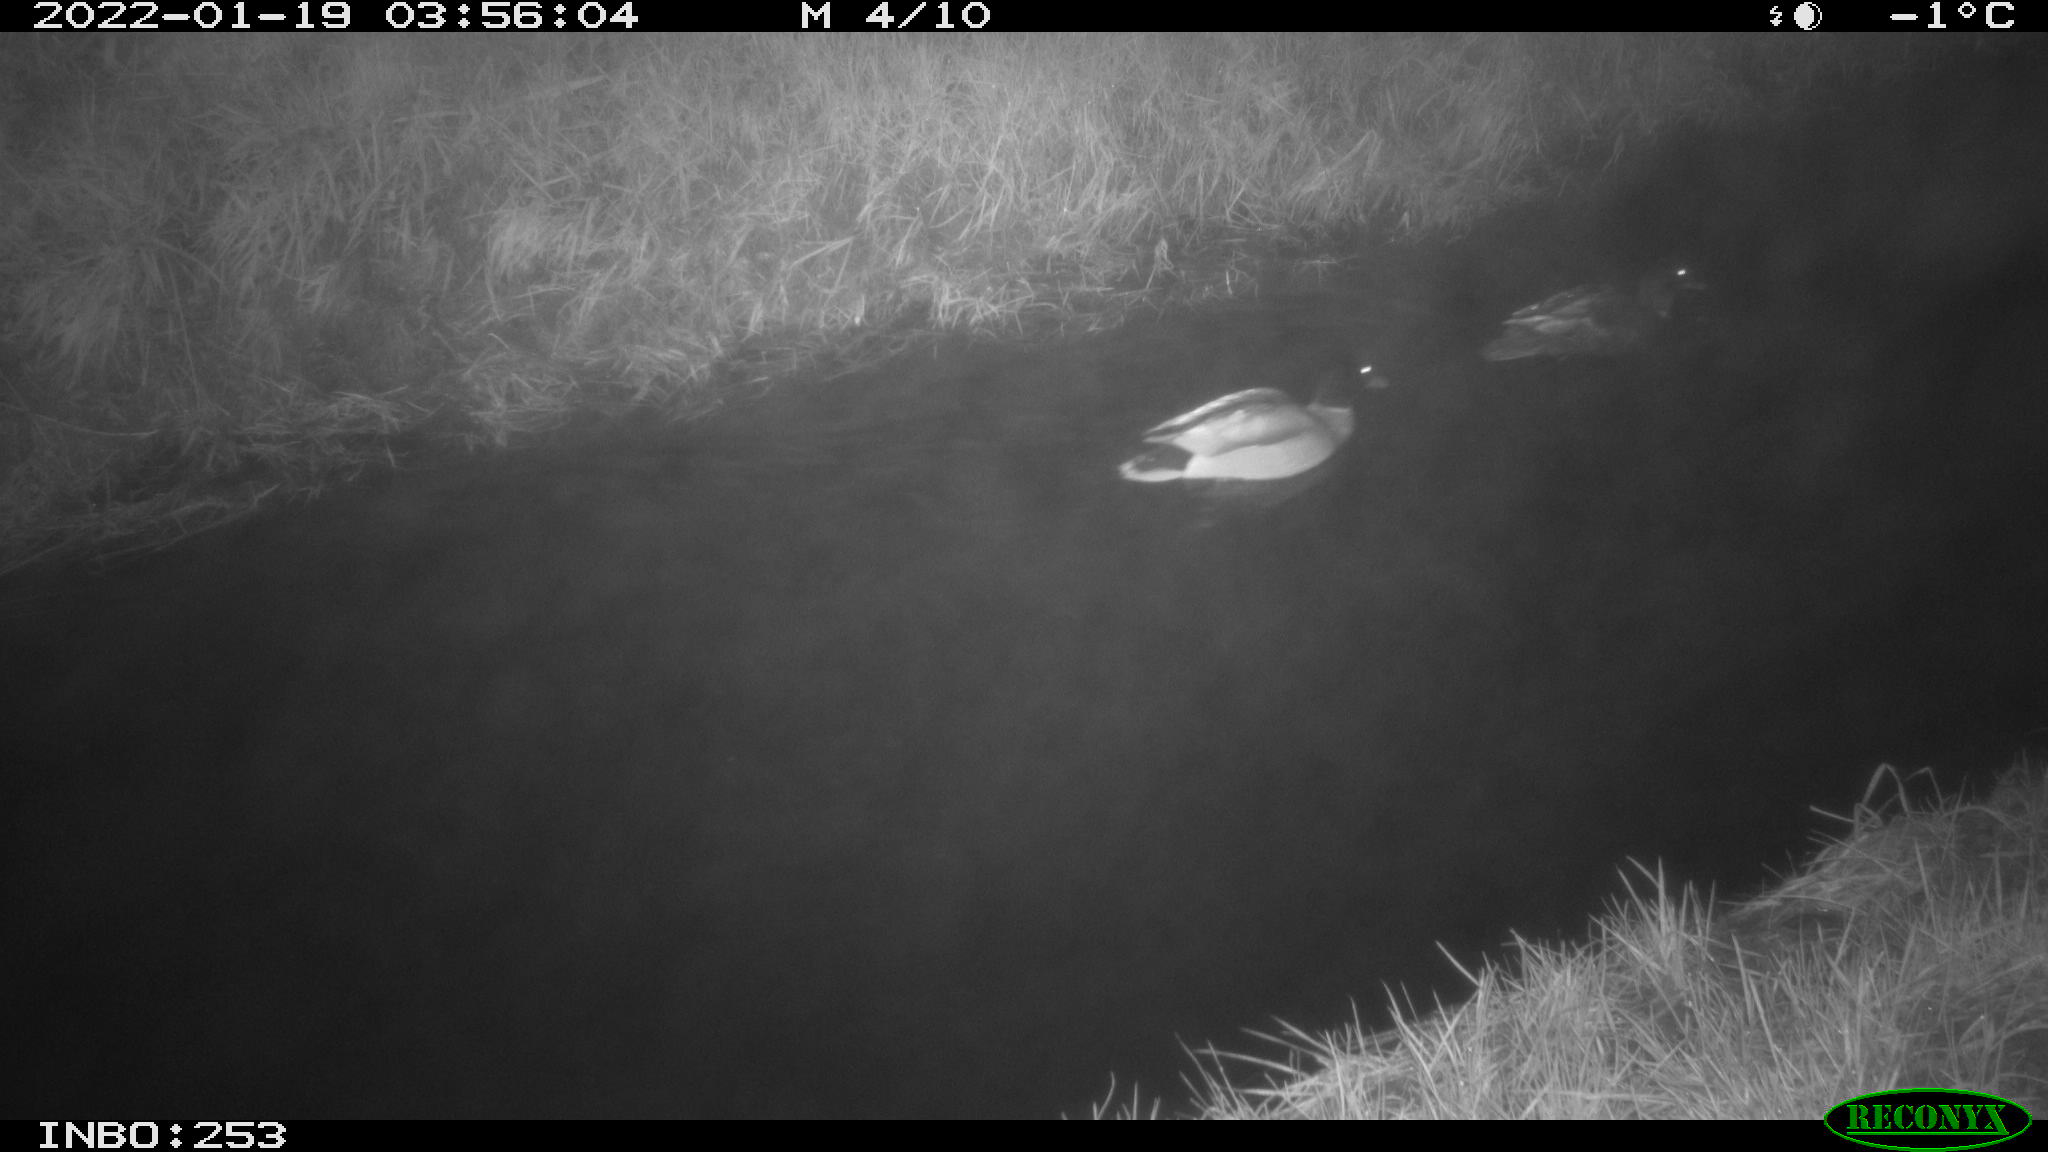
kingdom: Animalia
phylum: Chordata
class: Aves
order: Anseriformes
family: Anatidae
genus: Anas
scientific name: Anas
